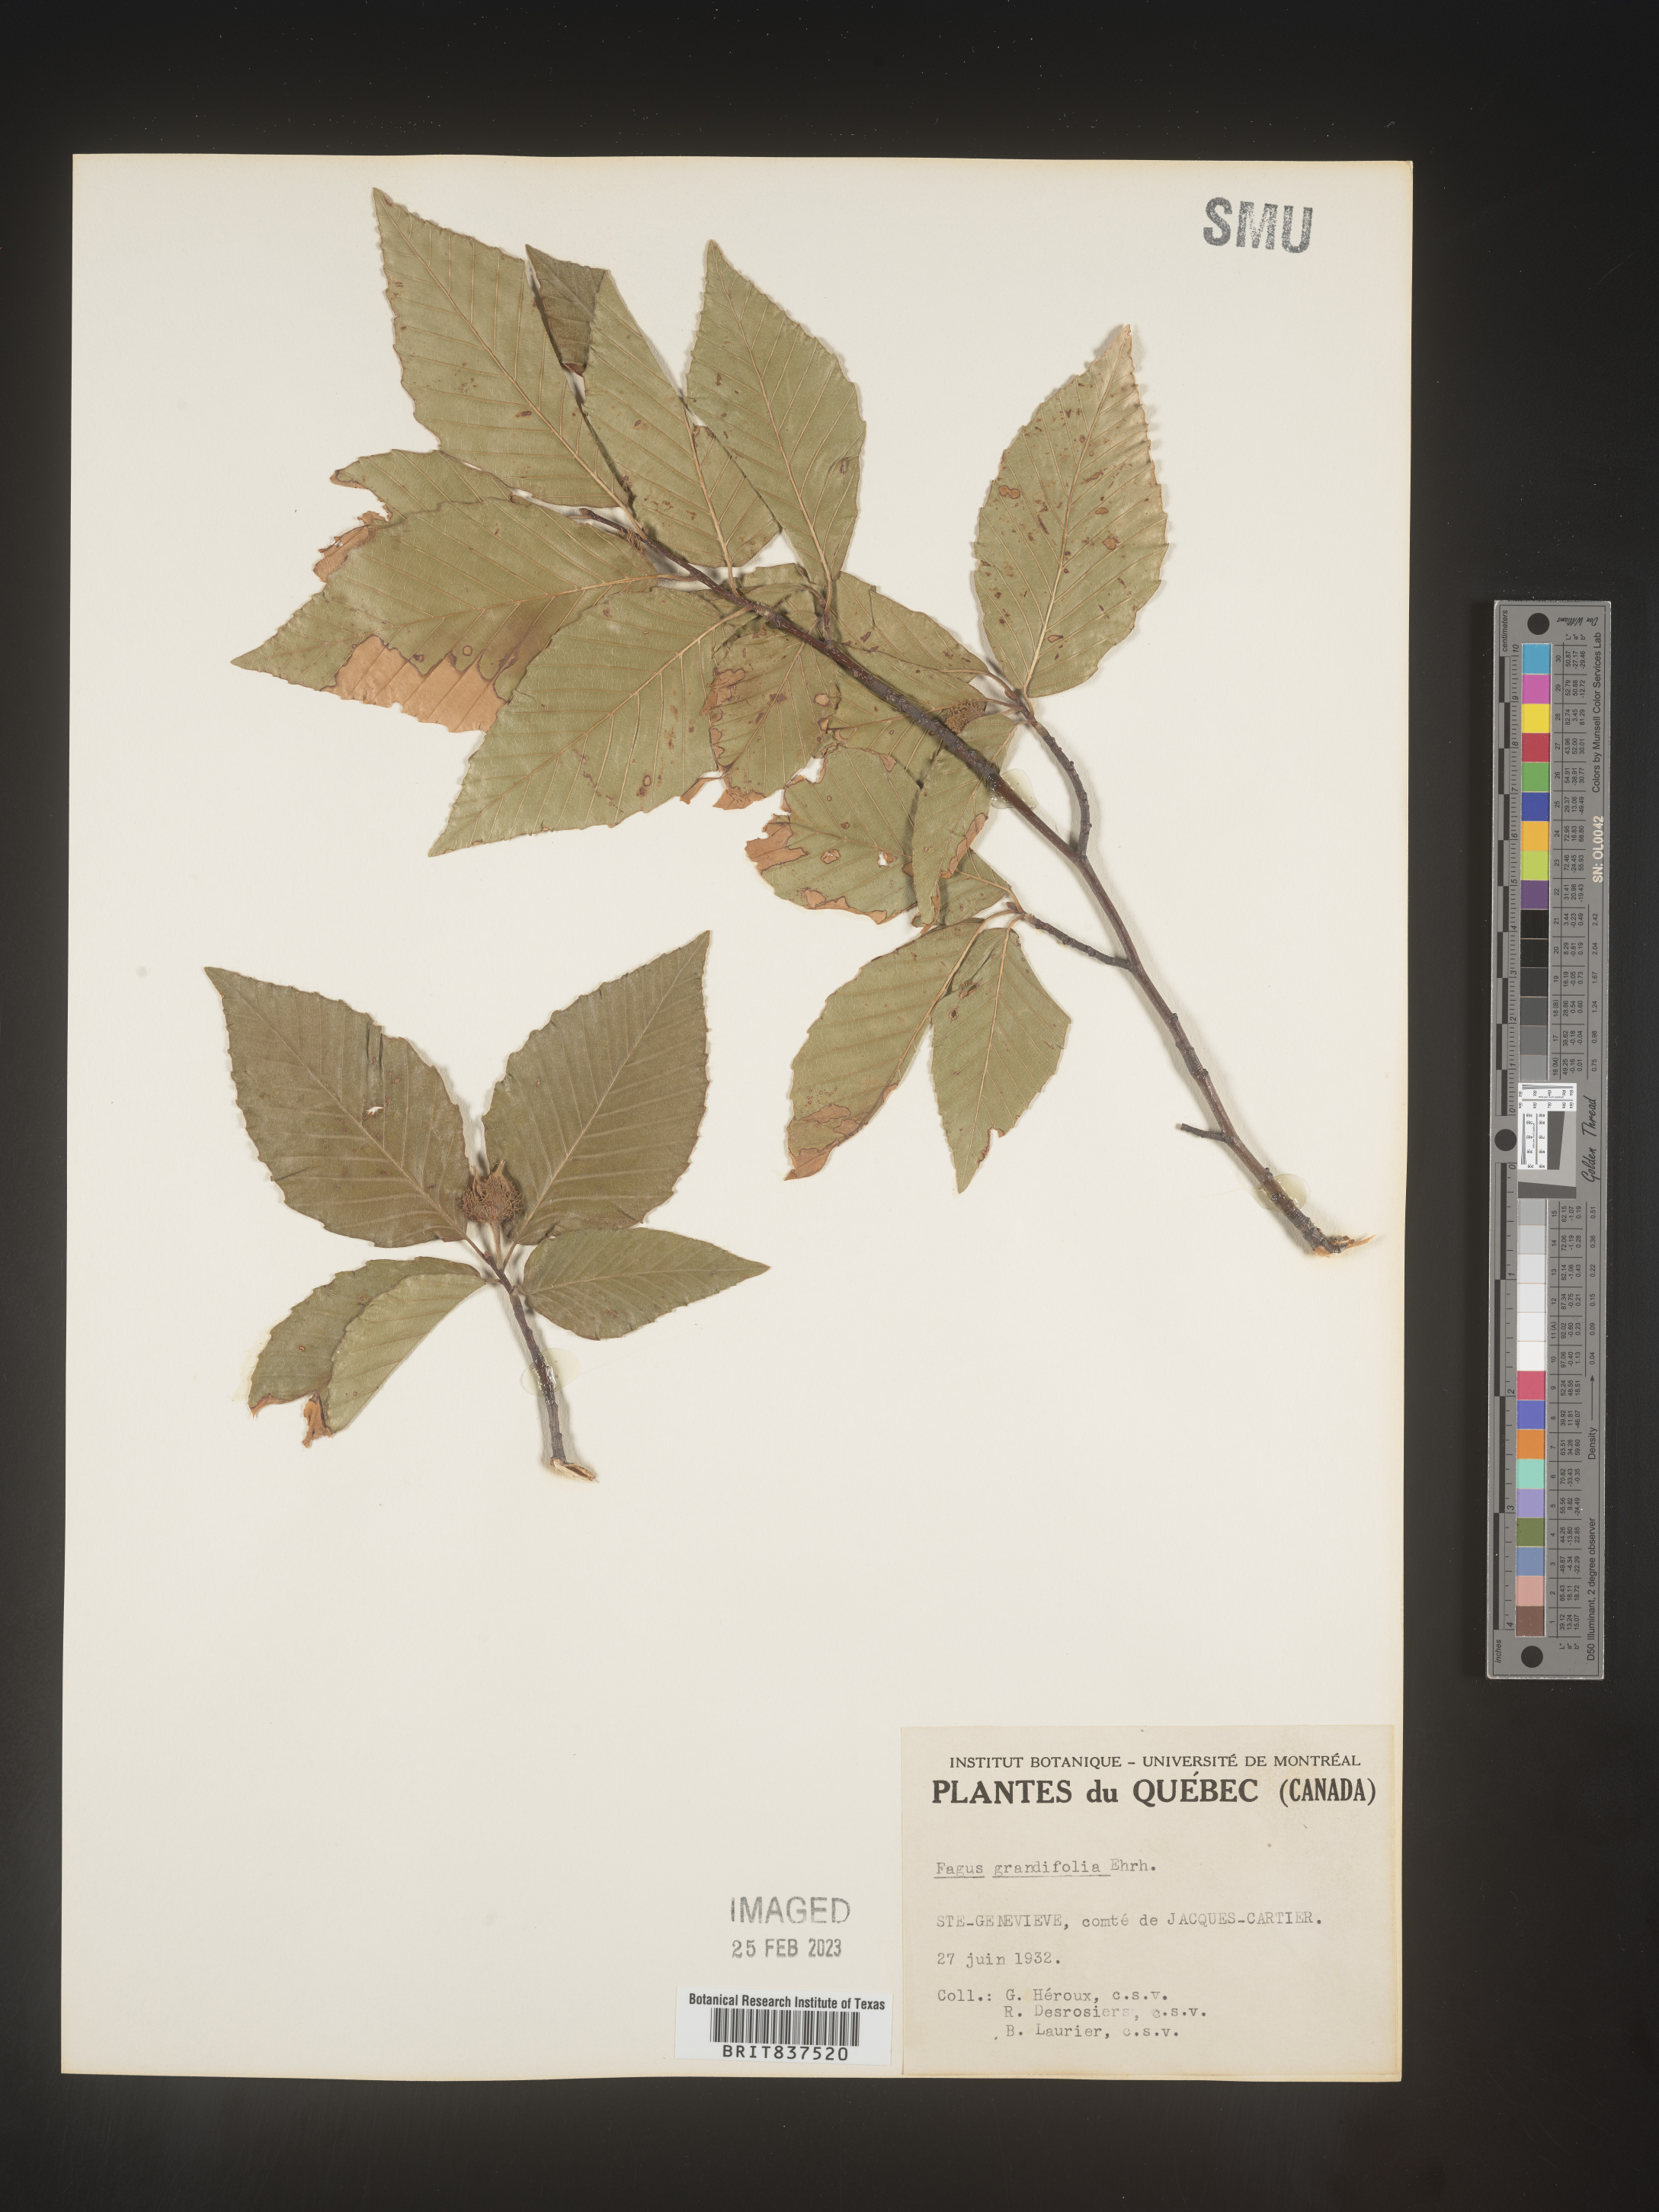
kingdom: Plantae
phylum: Tracheophyta
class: Magnoliopsida
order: Fagales
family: Fagaceae
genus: Fagus
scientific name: Fagus grandifolia
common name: American beech
